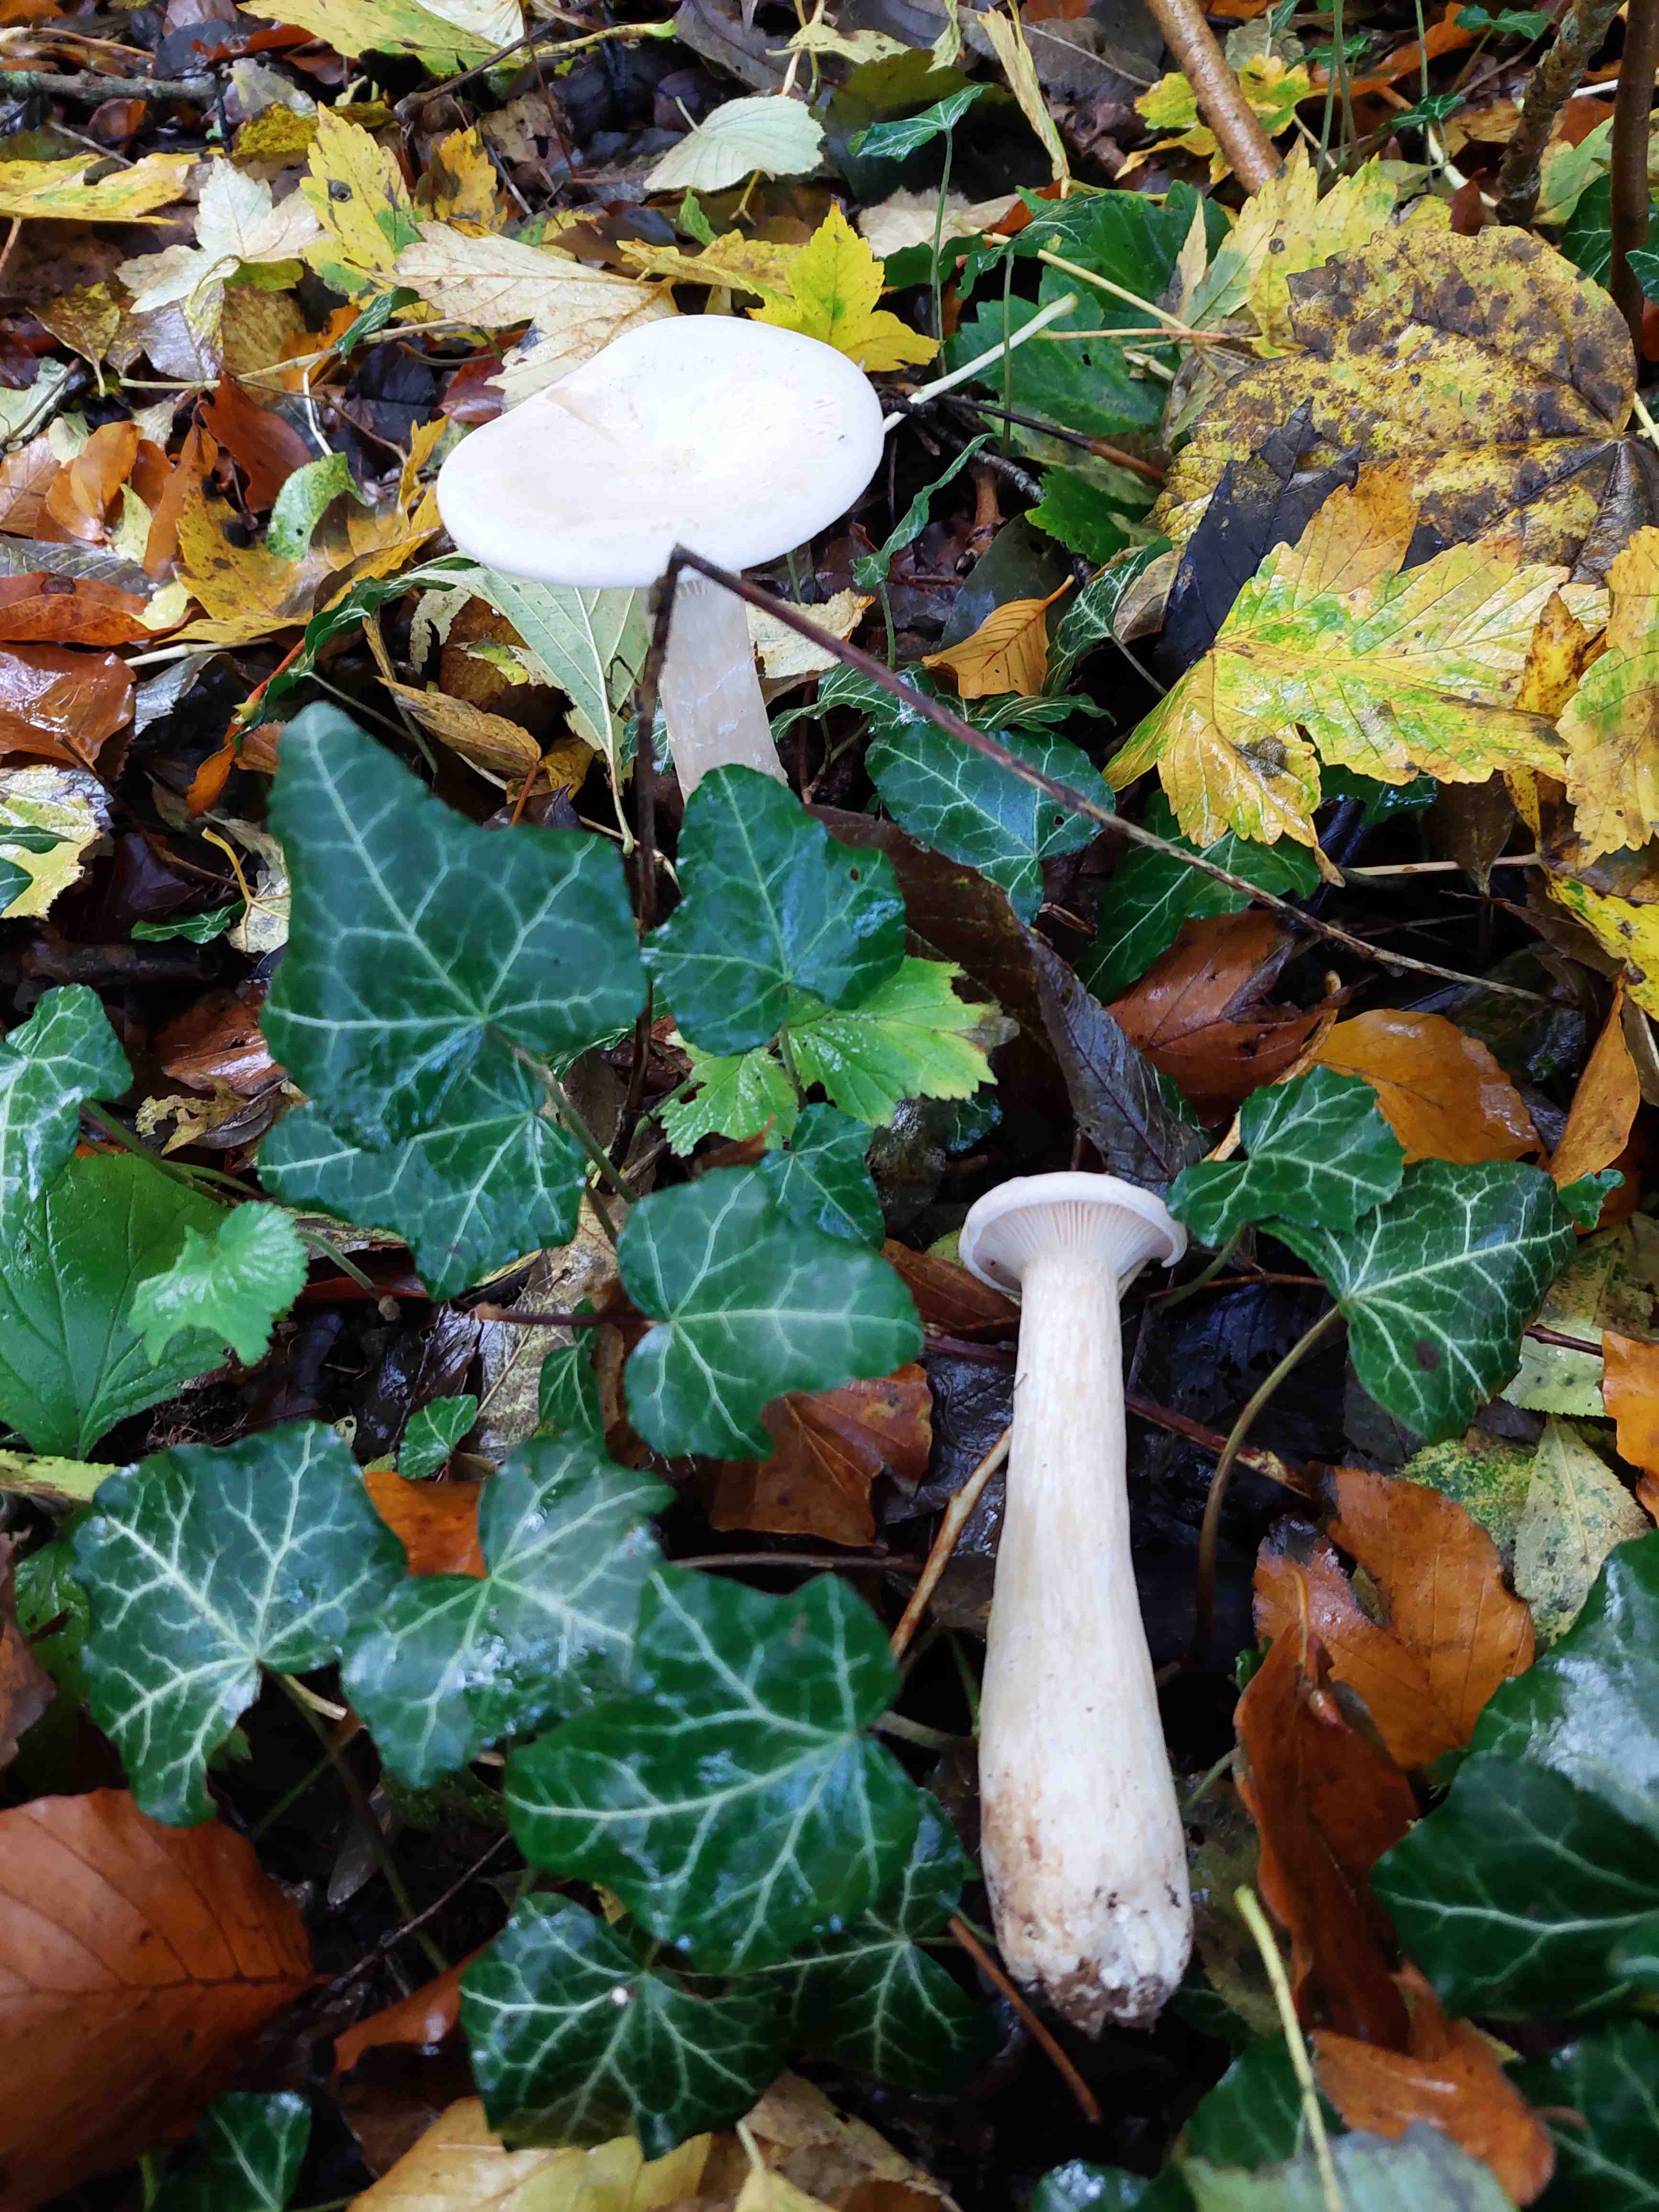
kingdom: Fungi
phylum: Basidiomycota
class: Agaricomycetes
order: Agaricales
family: Tricholomataceae
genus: Infundibulicybe
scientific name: Infundibulicybe geotropa
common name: stor tragthat
